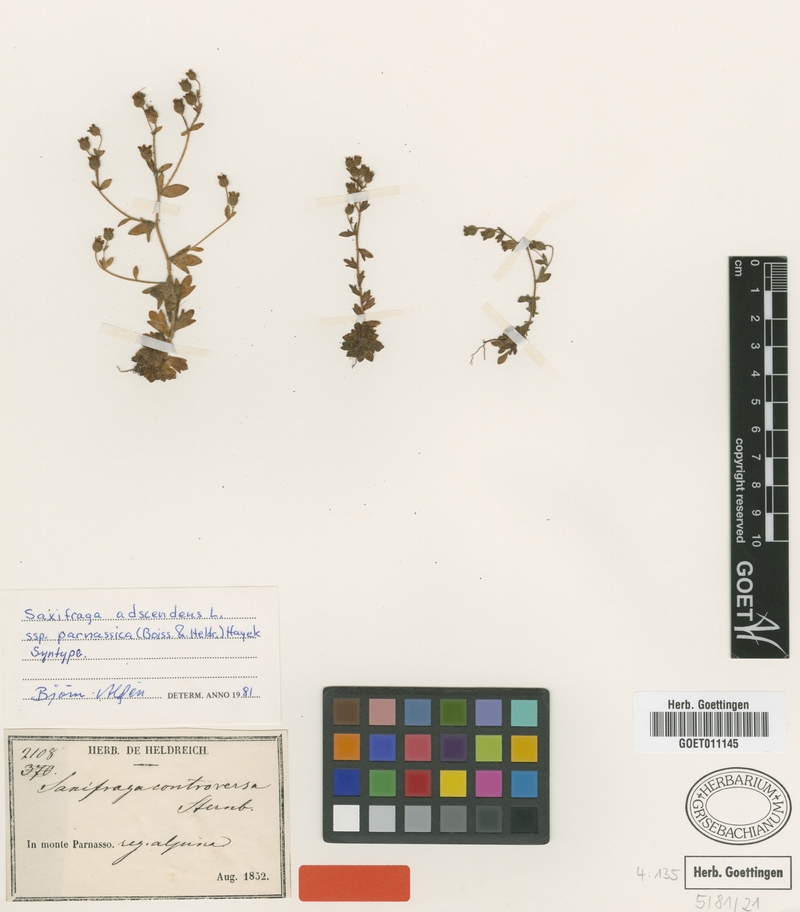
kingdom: Plantae
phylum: Tracheophyta
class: Magnoliopsida
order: Saxifragales
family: Saxifragaceae
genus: Saxifraga
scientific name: Saxifraga adscendens
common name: Ascending saxifrage
